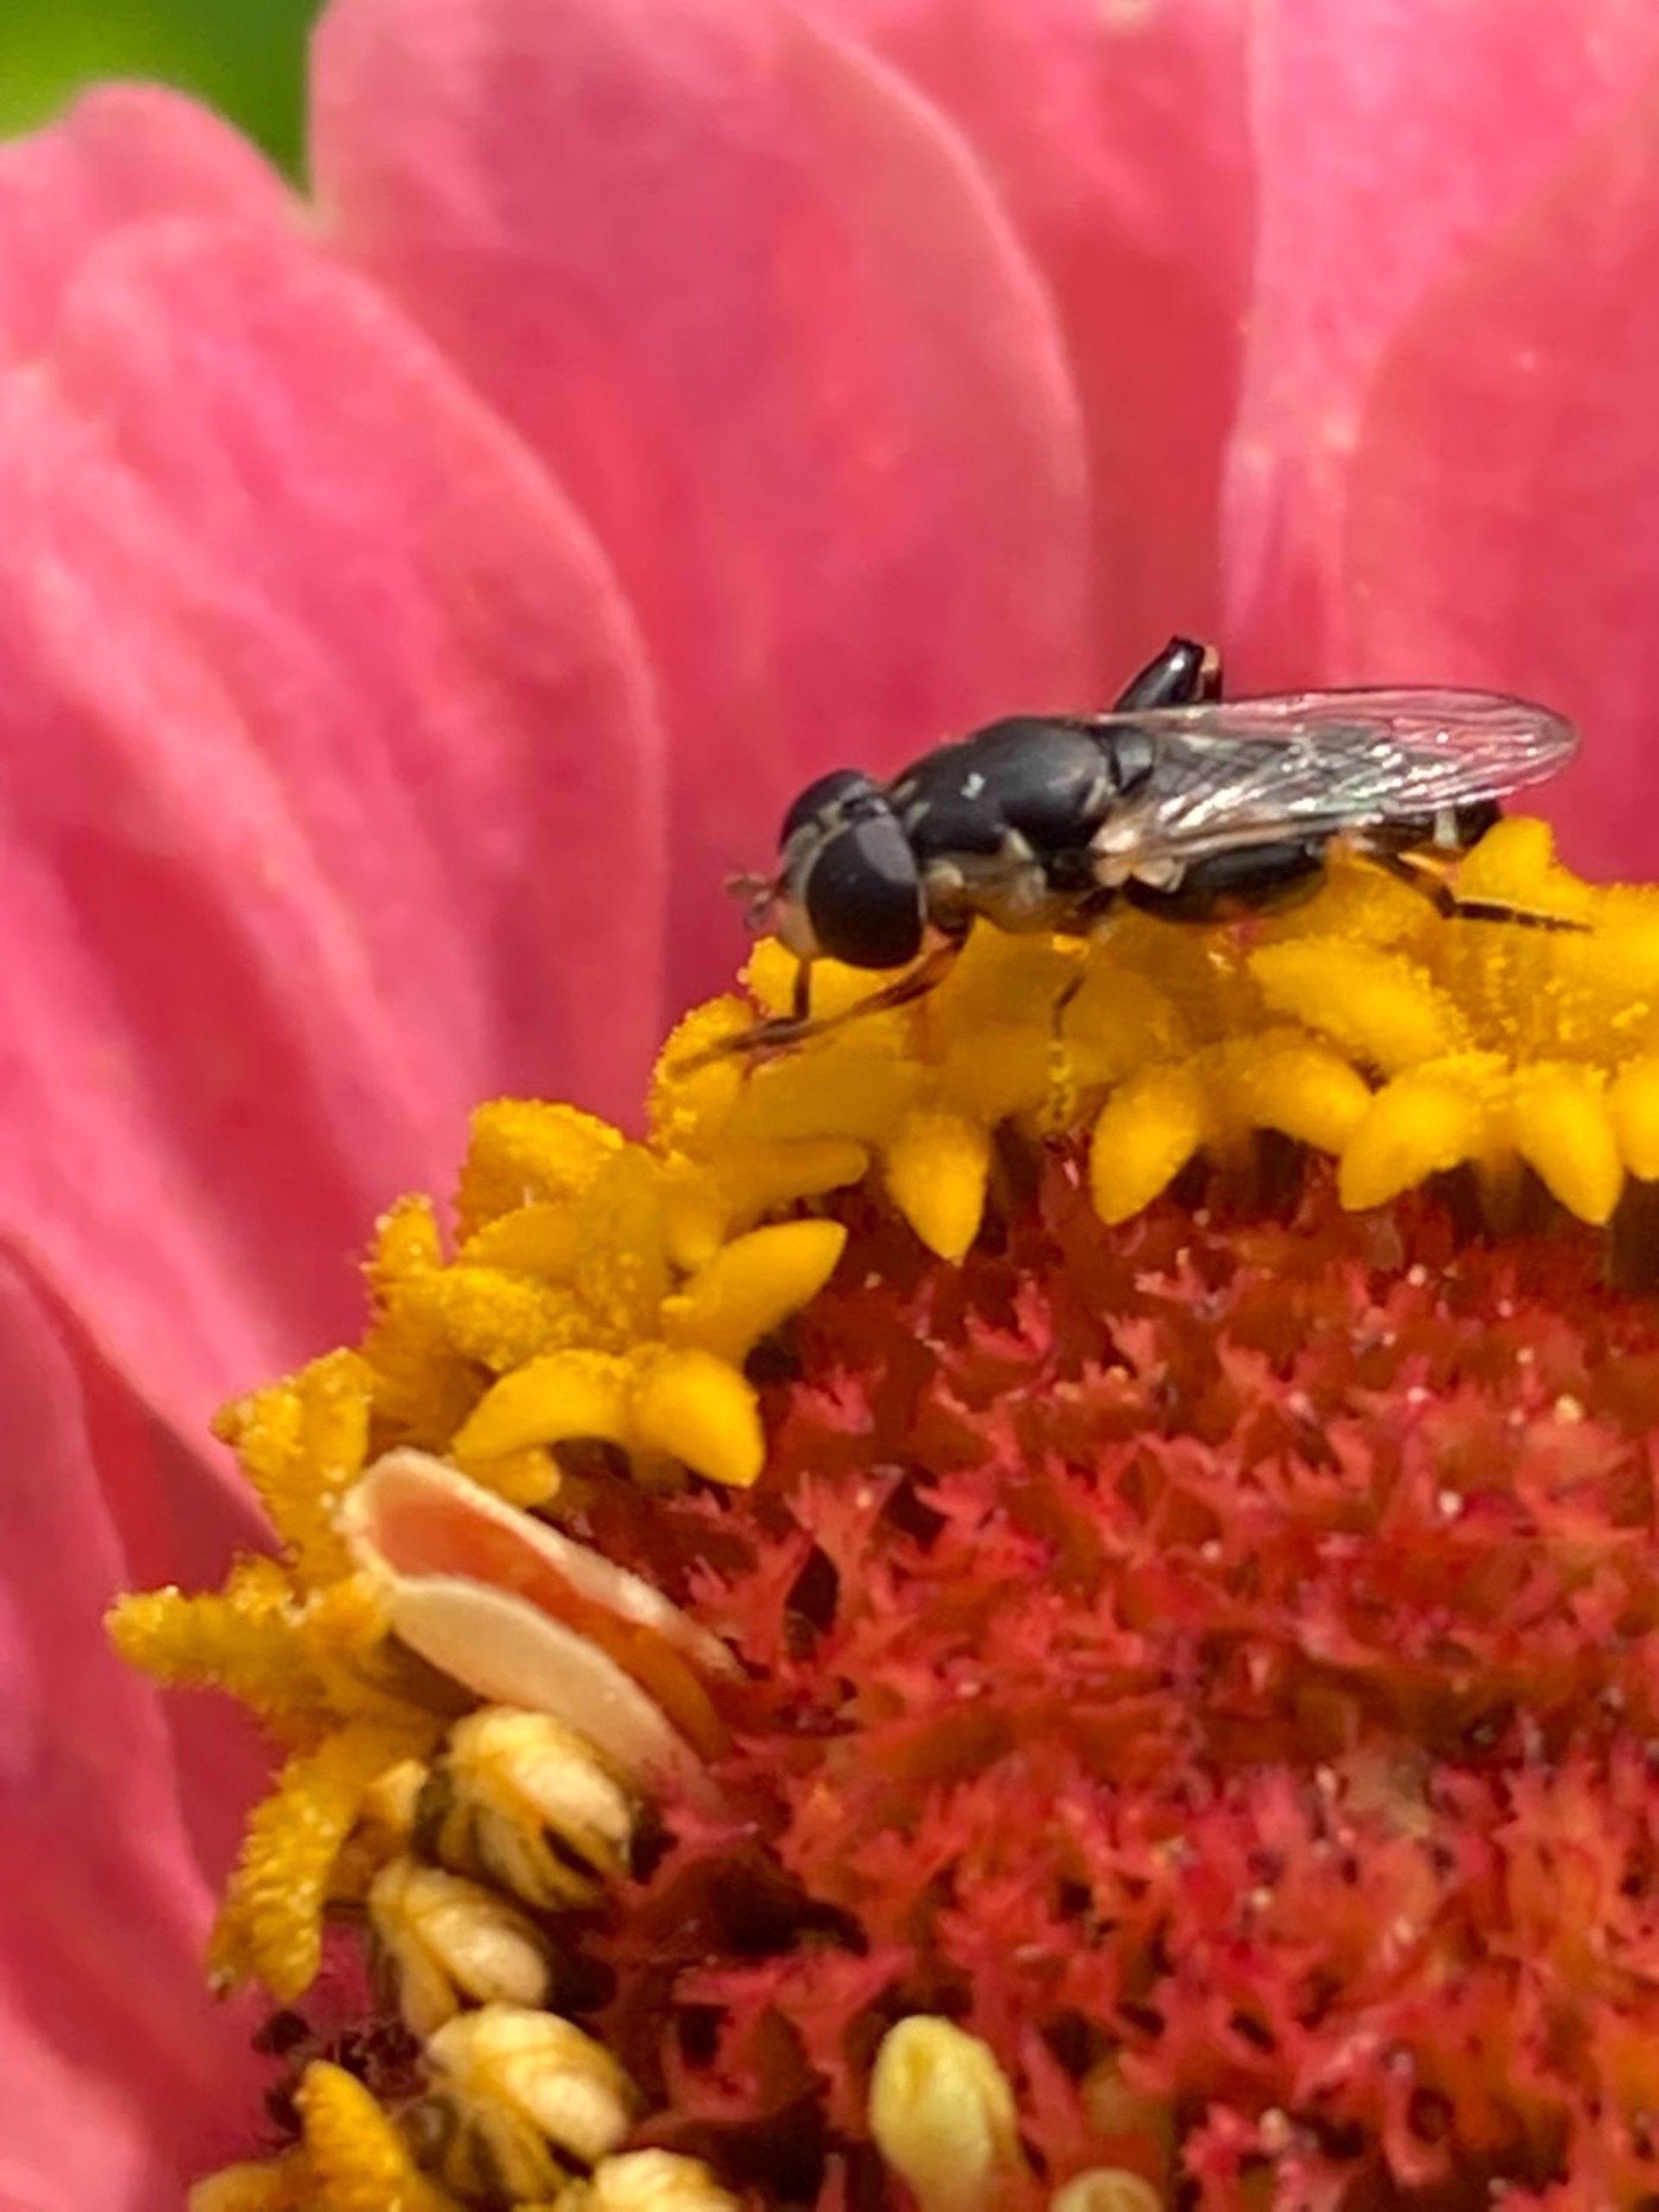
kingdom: Animalia
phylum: Arthropoda
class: Insecta
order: Diptera
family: Syrphidae
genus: Syritta
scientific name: Syritta pipiens
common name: Kompost-svirreflue
